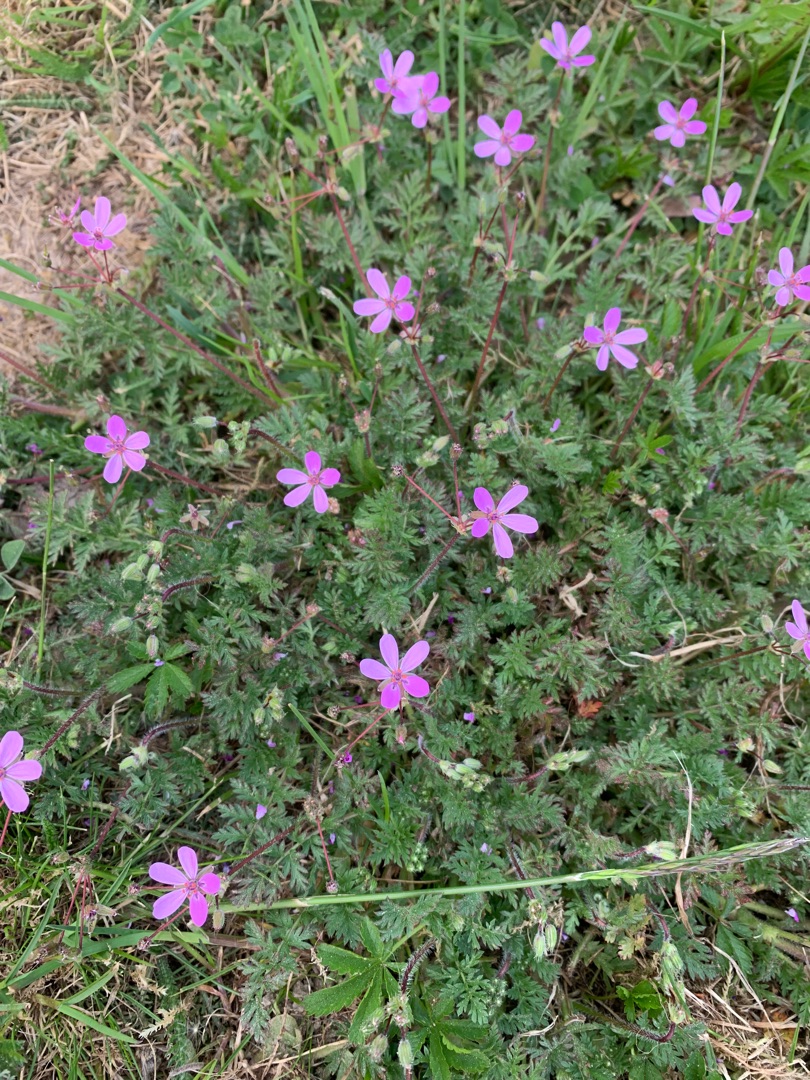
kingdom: Plantae
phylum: Tracheophyta
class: Magnoliopsida
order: Geraniales
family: Geraniaceae
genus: Erodium
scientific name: Erodium cicutarium
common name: Hejrenæb
